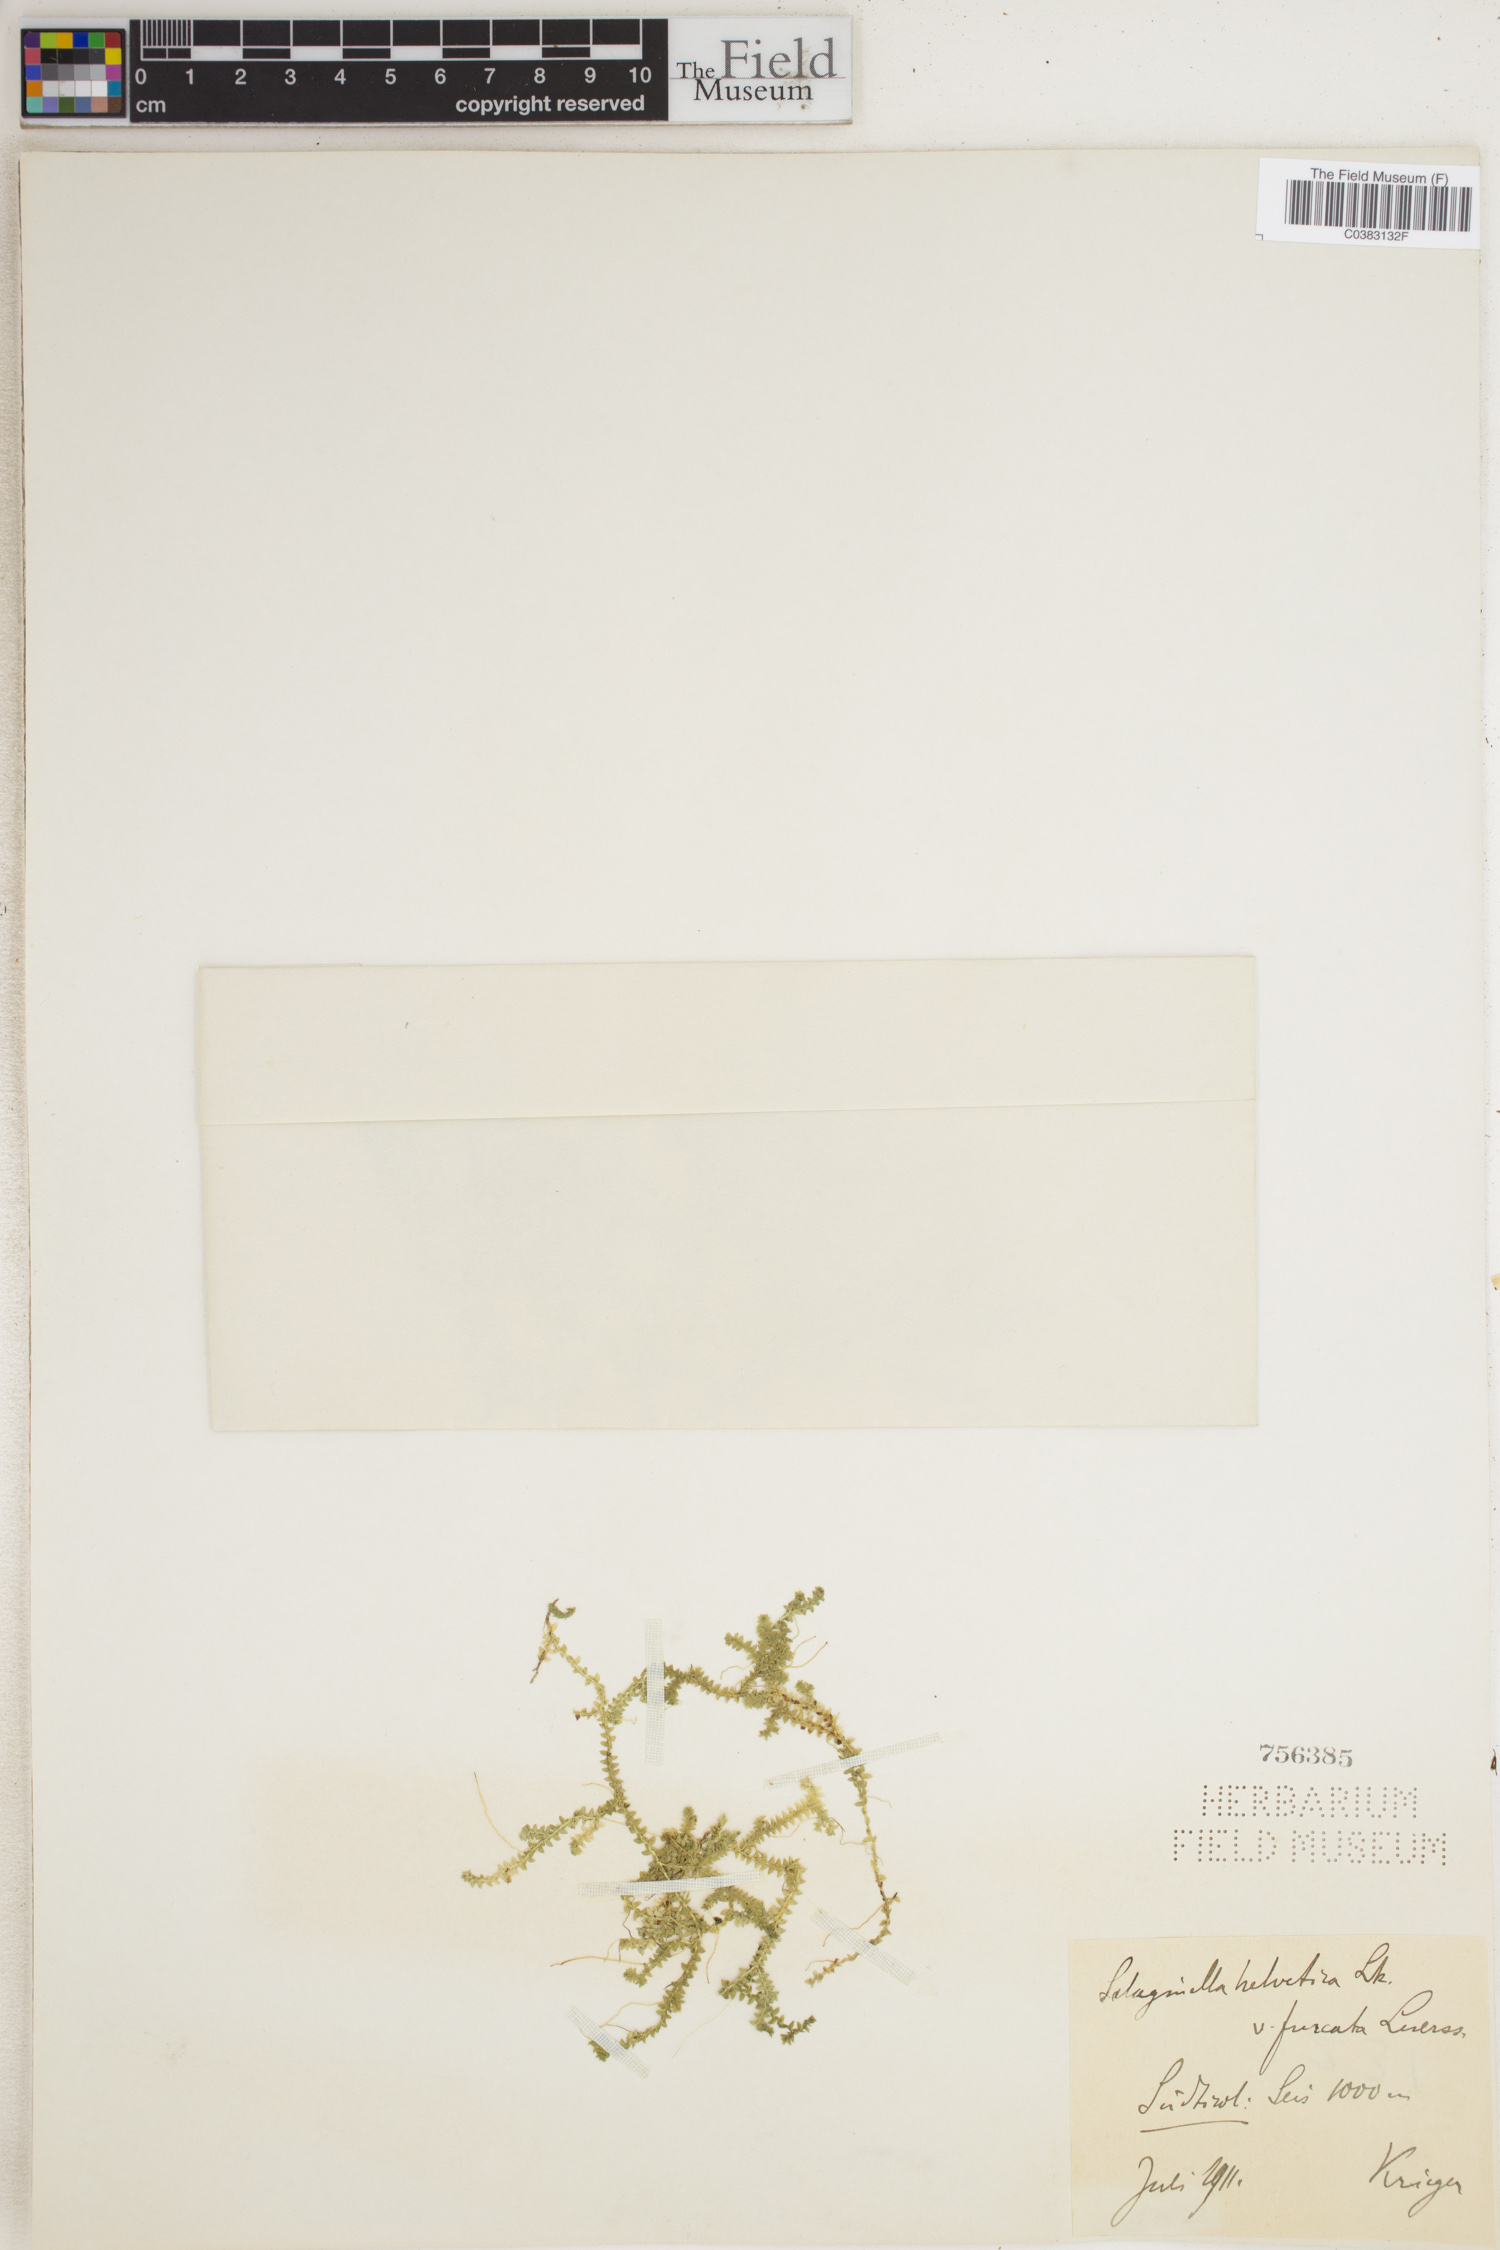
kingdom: Plantae
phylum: Tracheophyta
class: Lycopodiopsida
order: Selaginellales
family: Selaginellaceae
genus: Selaginella
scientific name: Selaginella helvetica
